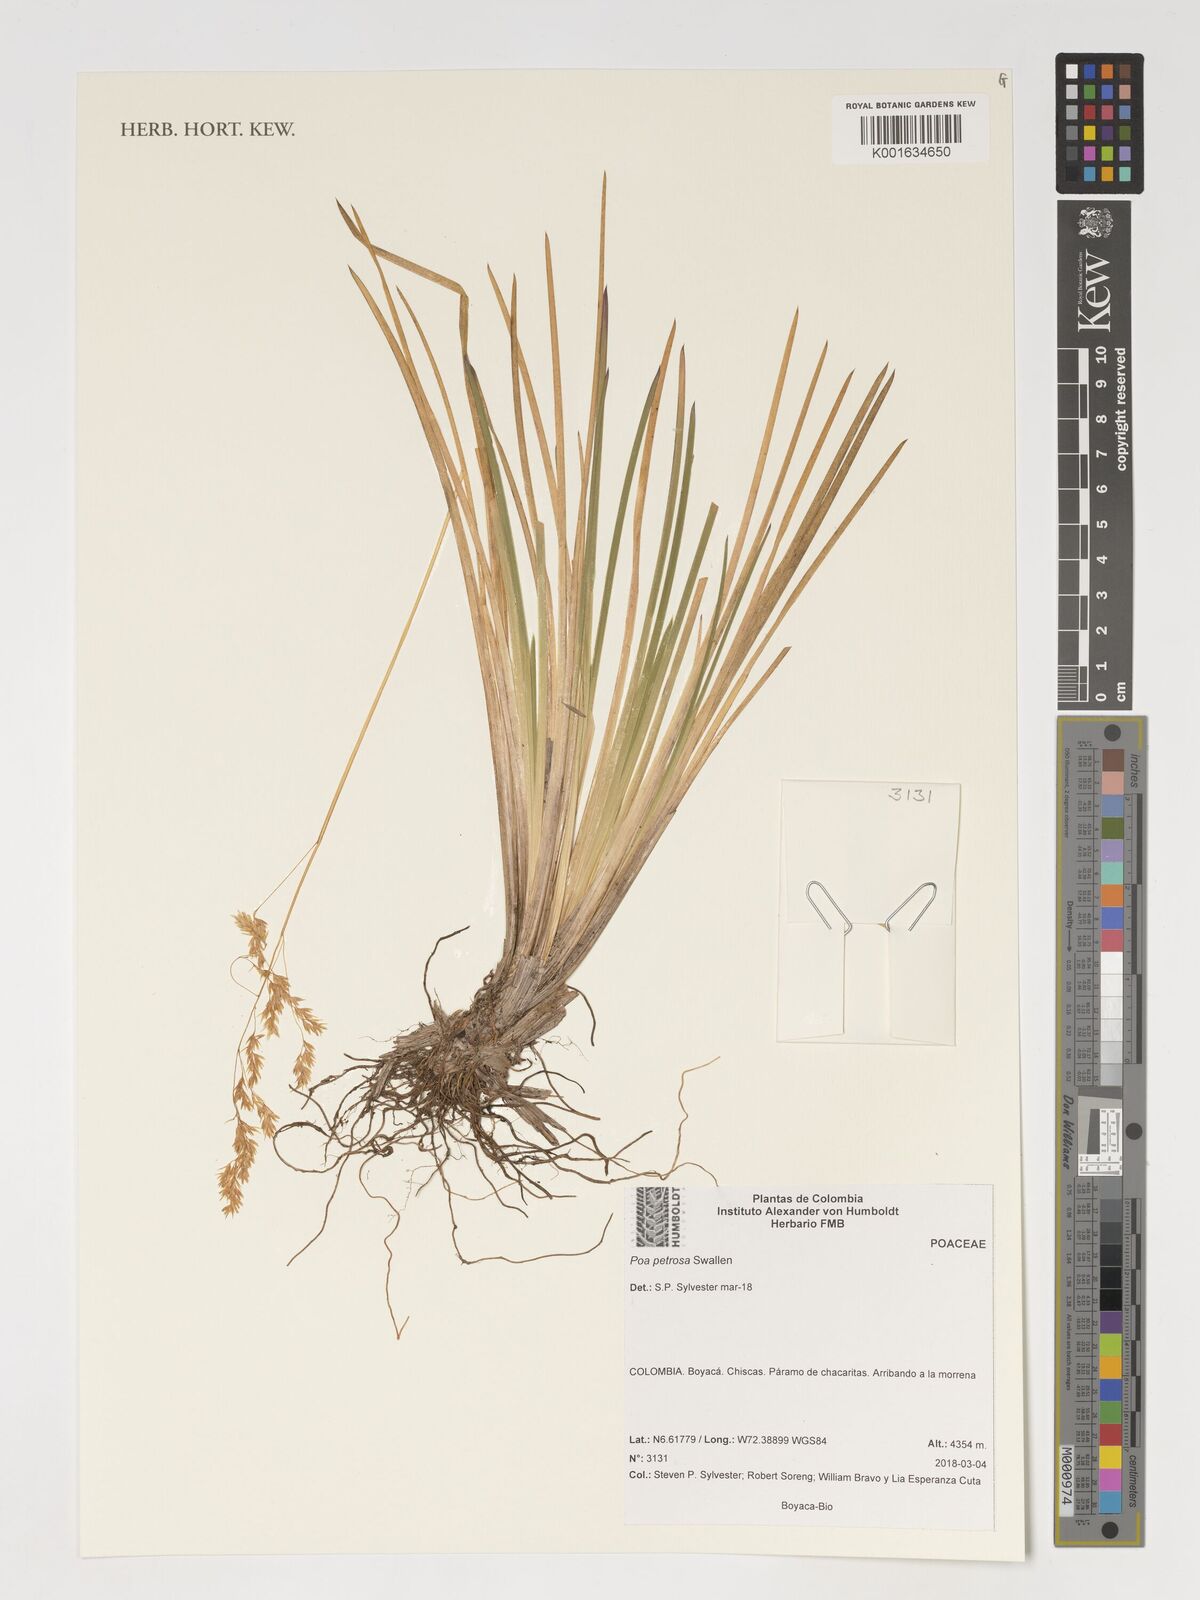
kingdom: Plantae
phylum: Tracheophyta
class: Liliopsida
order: Poales
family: Poaceae
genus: Poa
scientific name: Poa petrosa
